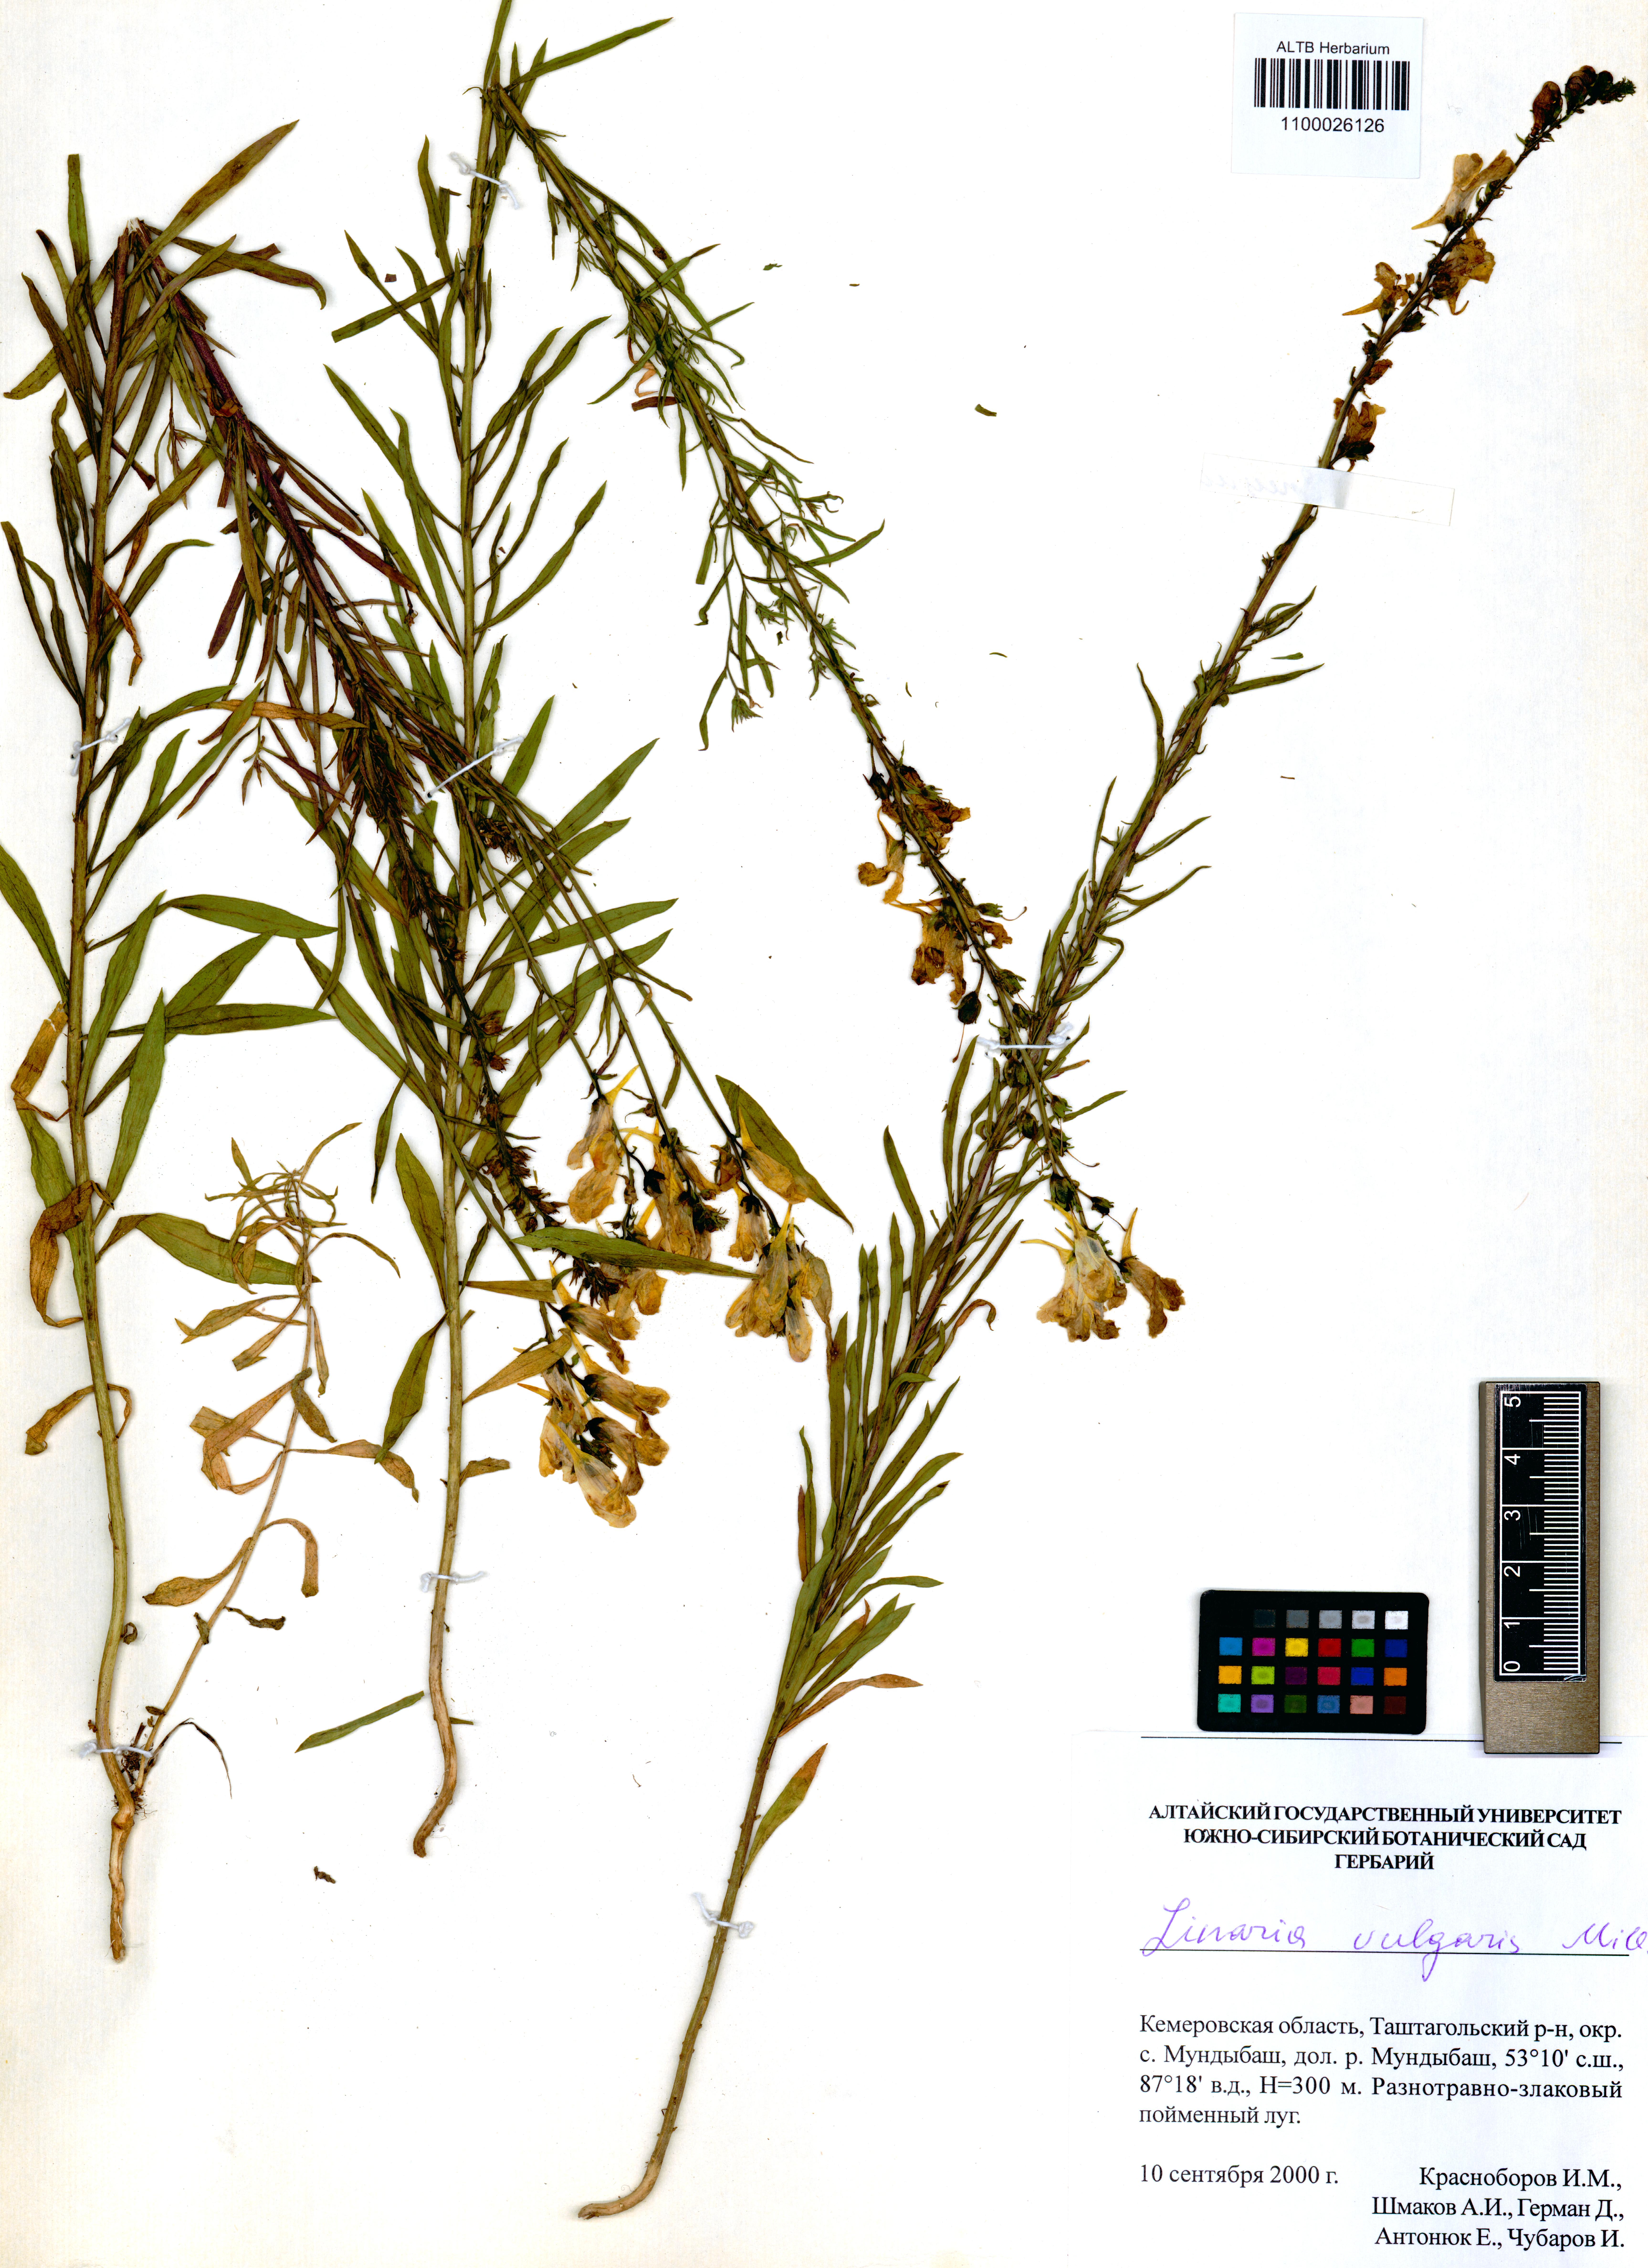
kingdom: Plantae
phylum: Tracheophyta
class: Magnoliopsida
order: Lamiales
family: Plantaginaceae
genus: Linaria
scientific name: Linaria vulgaris
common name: Butter and eggs
